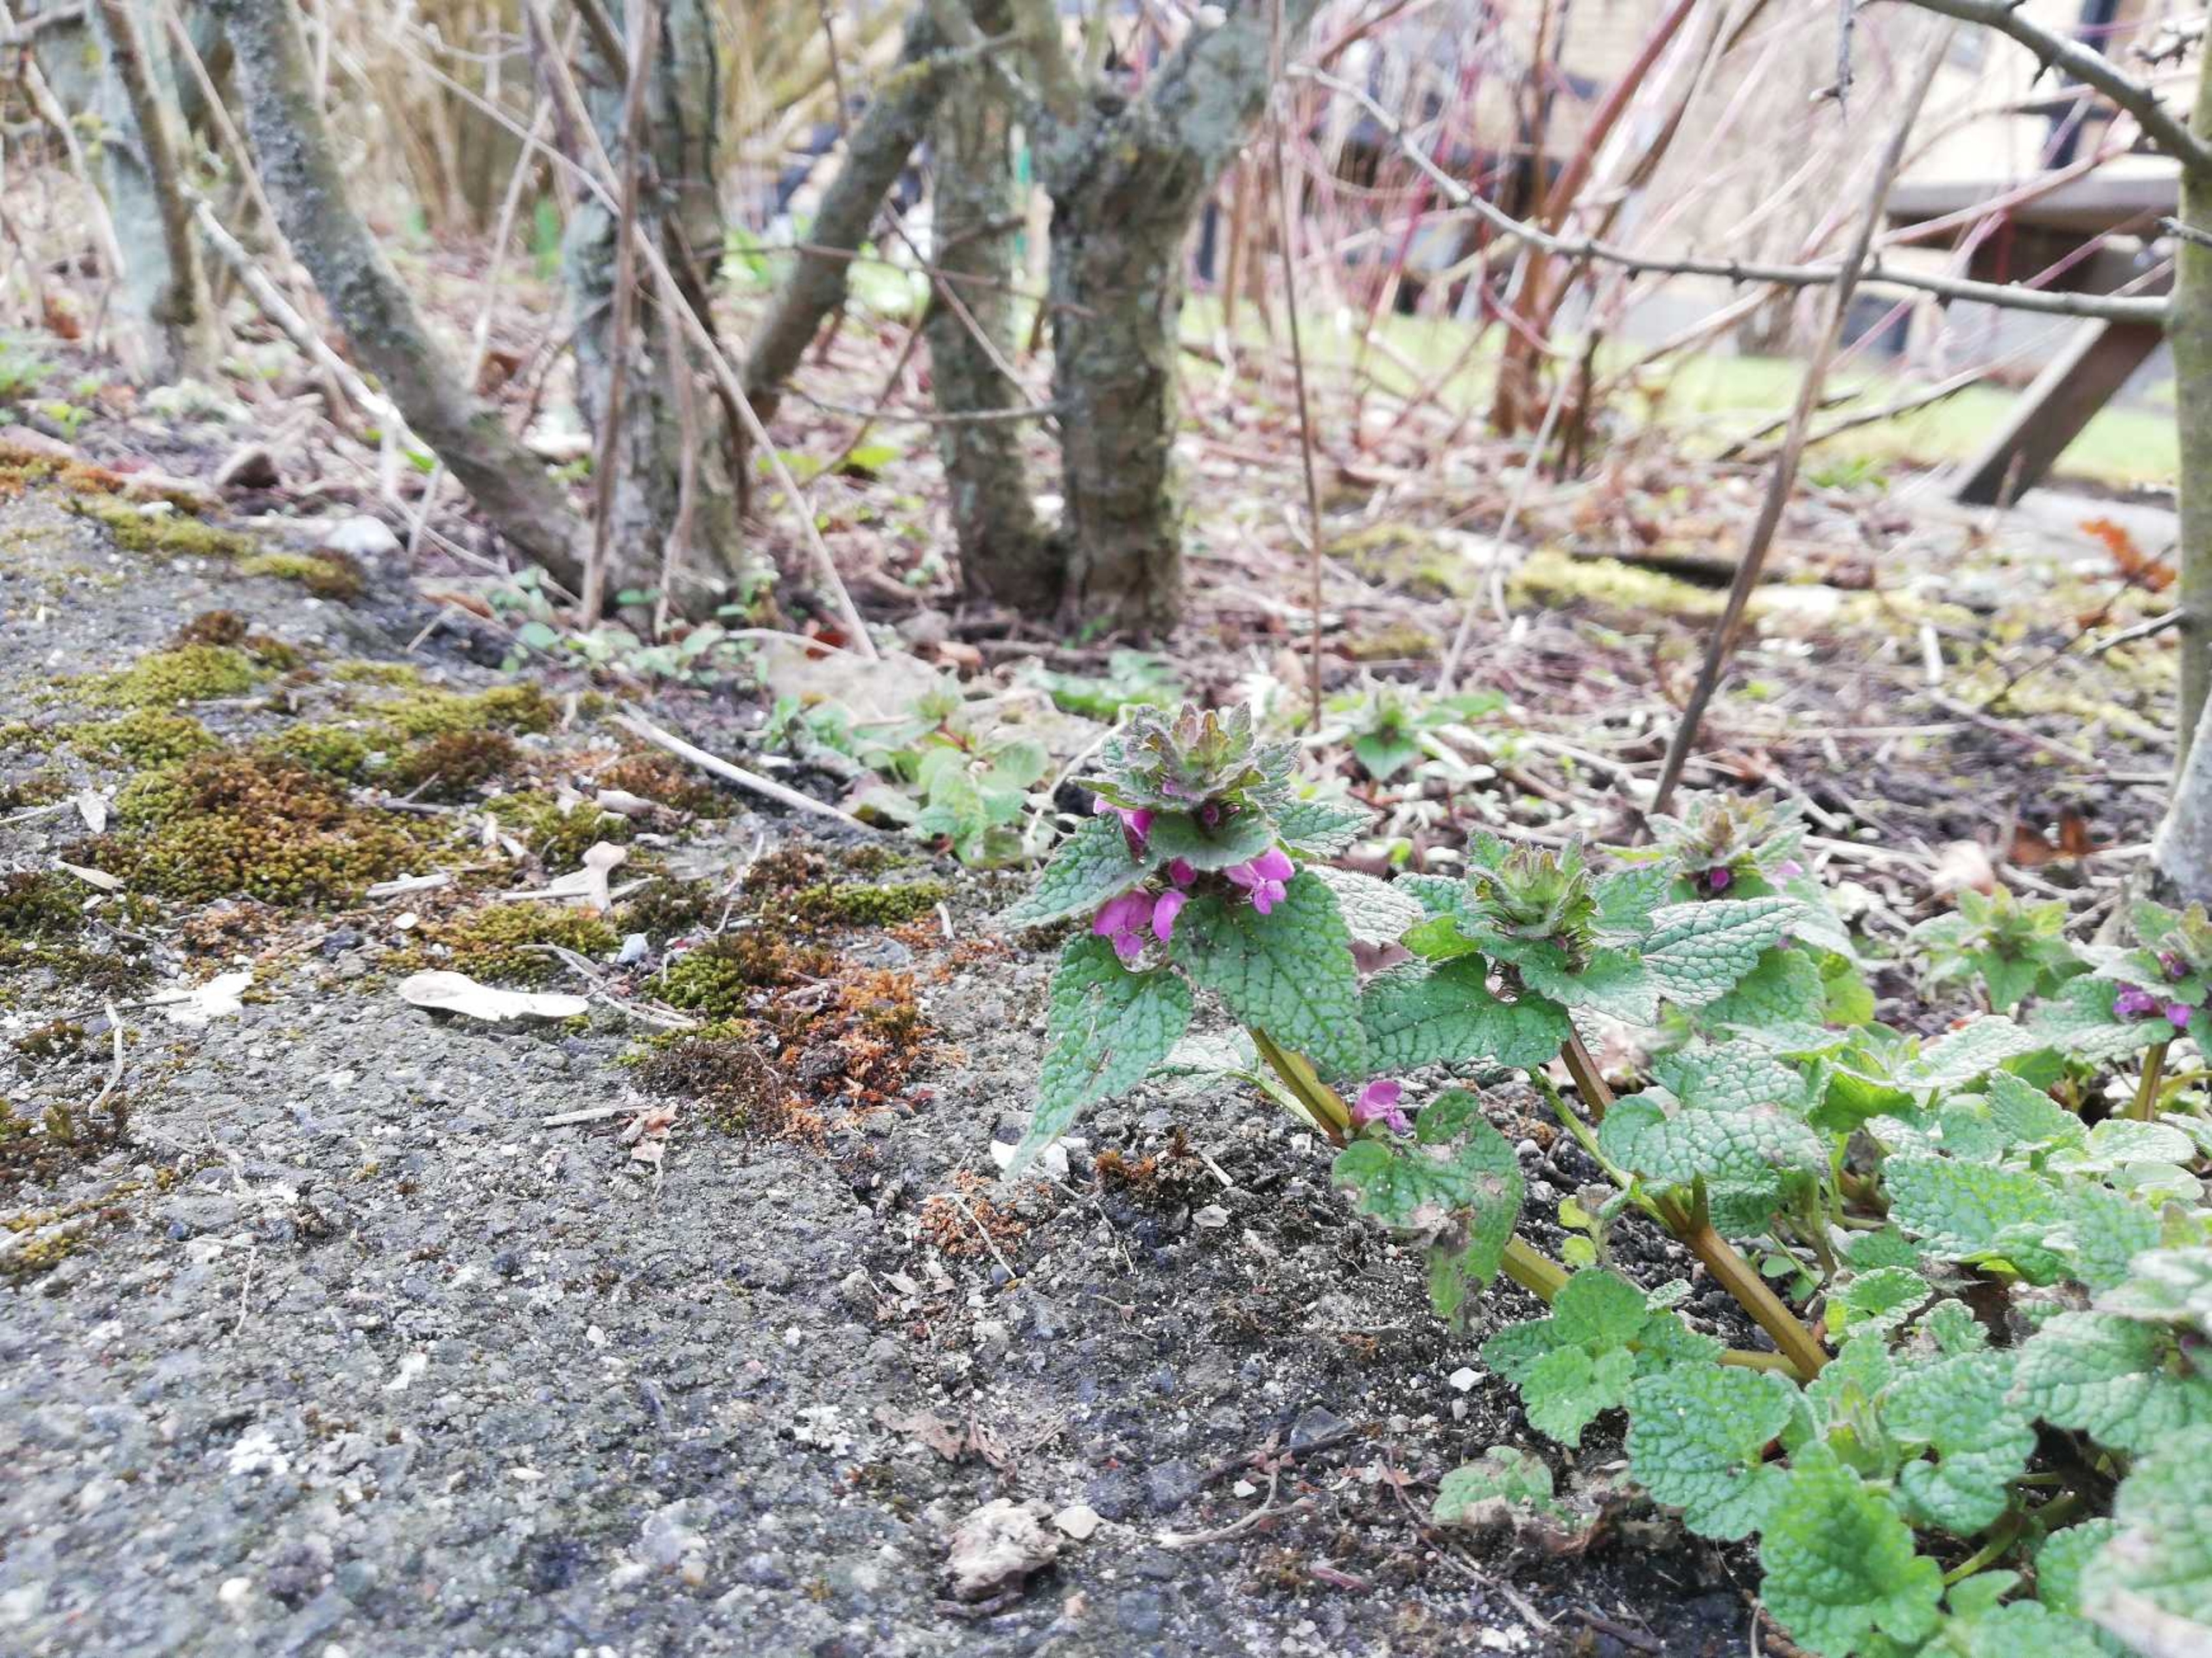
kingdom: Plantae
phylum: Tracheophyta
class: Magnoliopsida
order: Lamiales
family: Lamiaceae
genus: Lamium
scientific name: Lamium purpureum
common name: Rød tvetand
